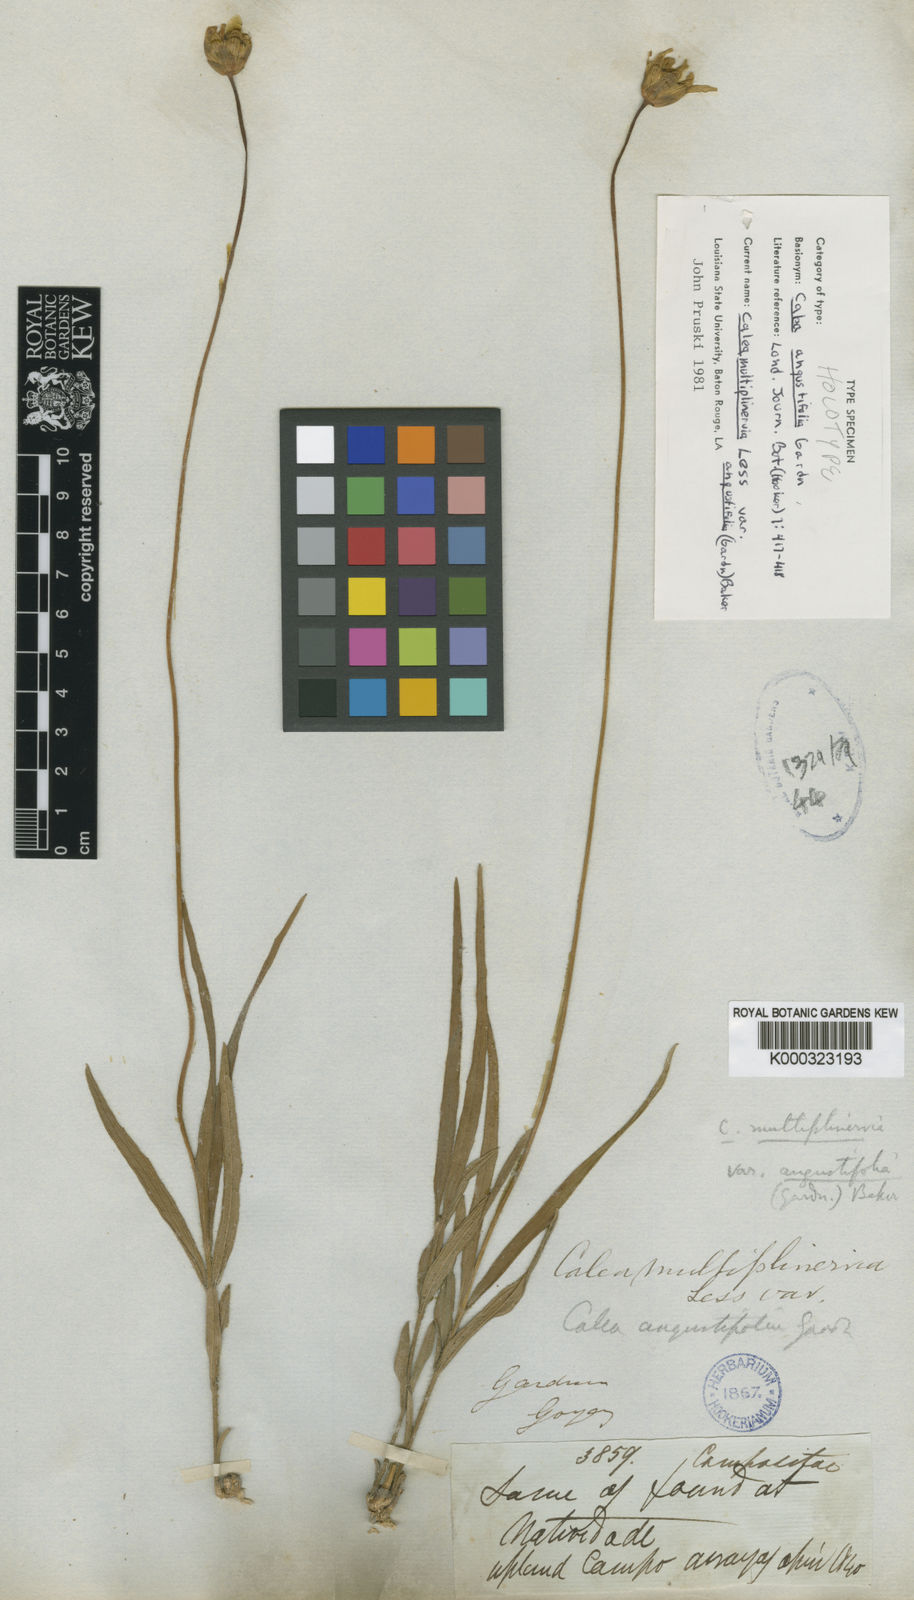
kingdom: Plantae
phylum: Tracheophyta
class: Magnoliopsida
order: Asterales
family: Asteraceae
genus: Calea
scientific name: Calea multiplinervia
